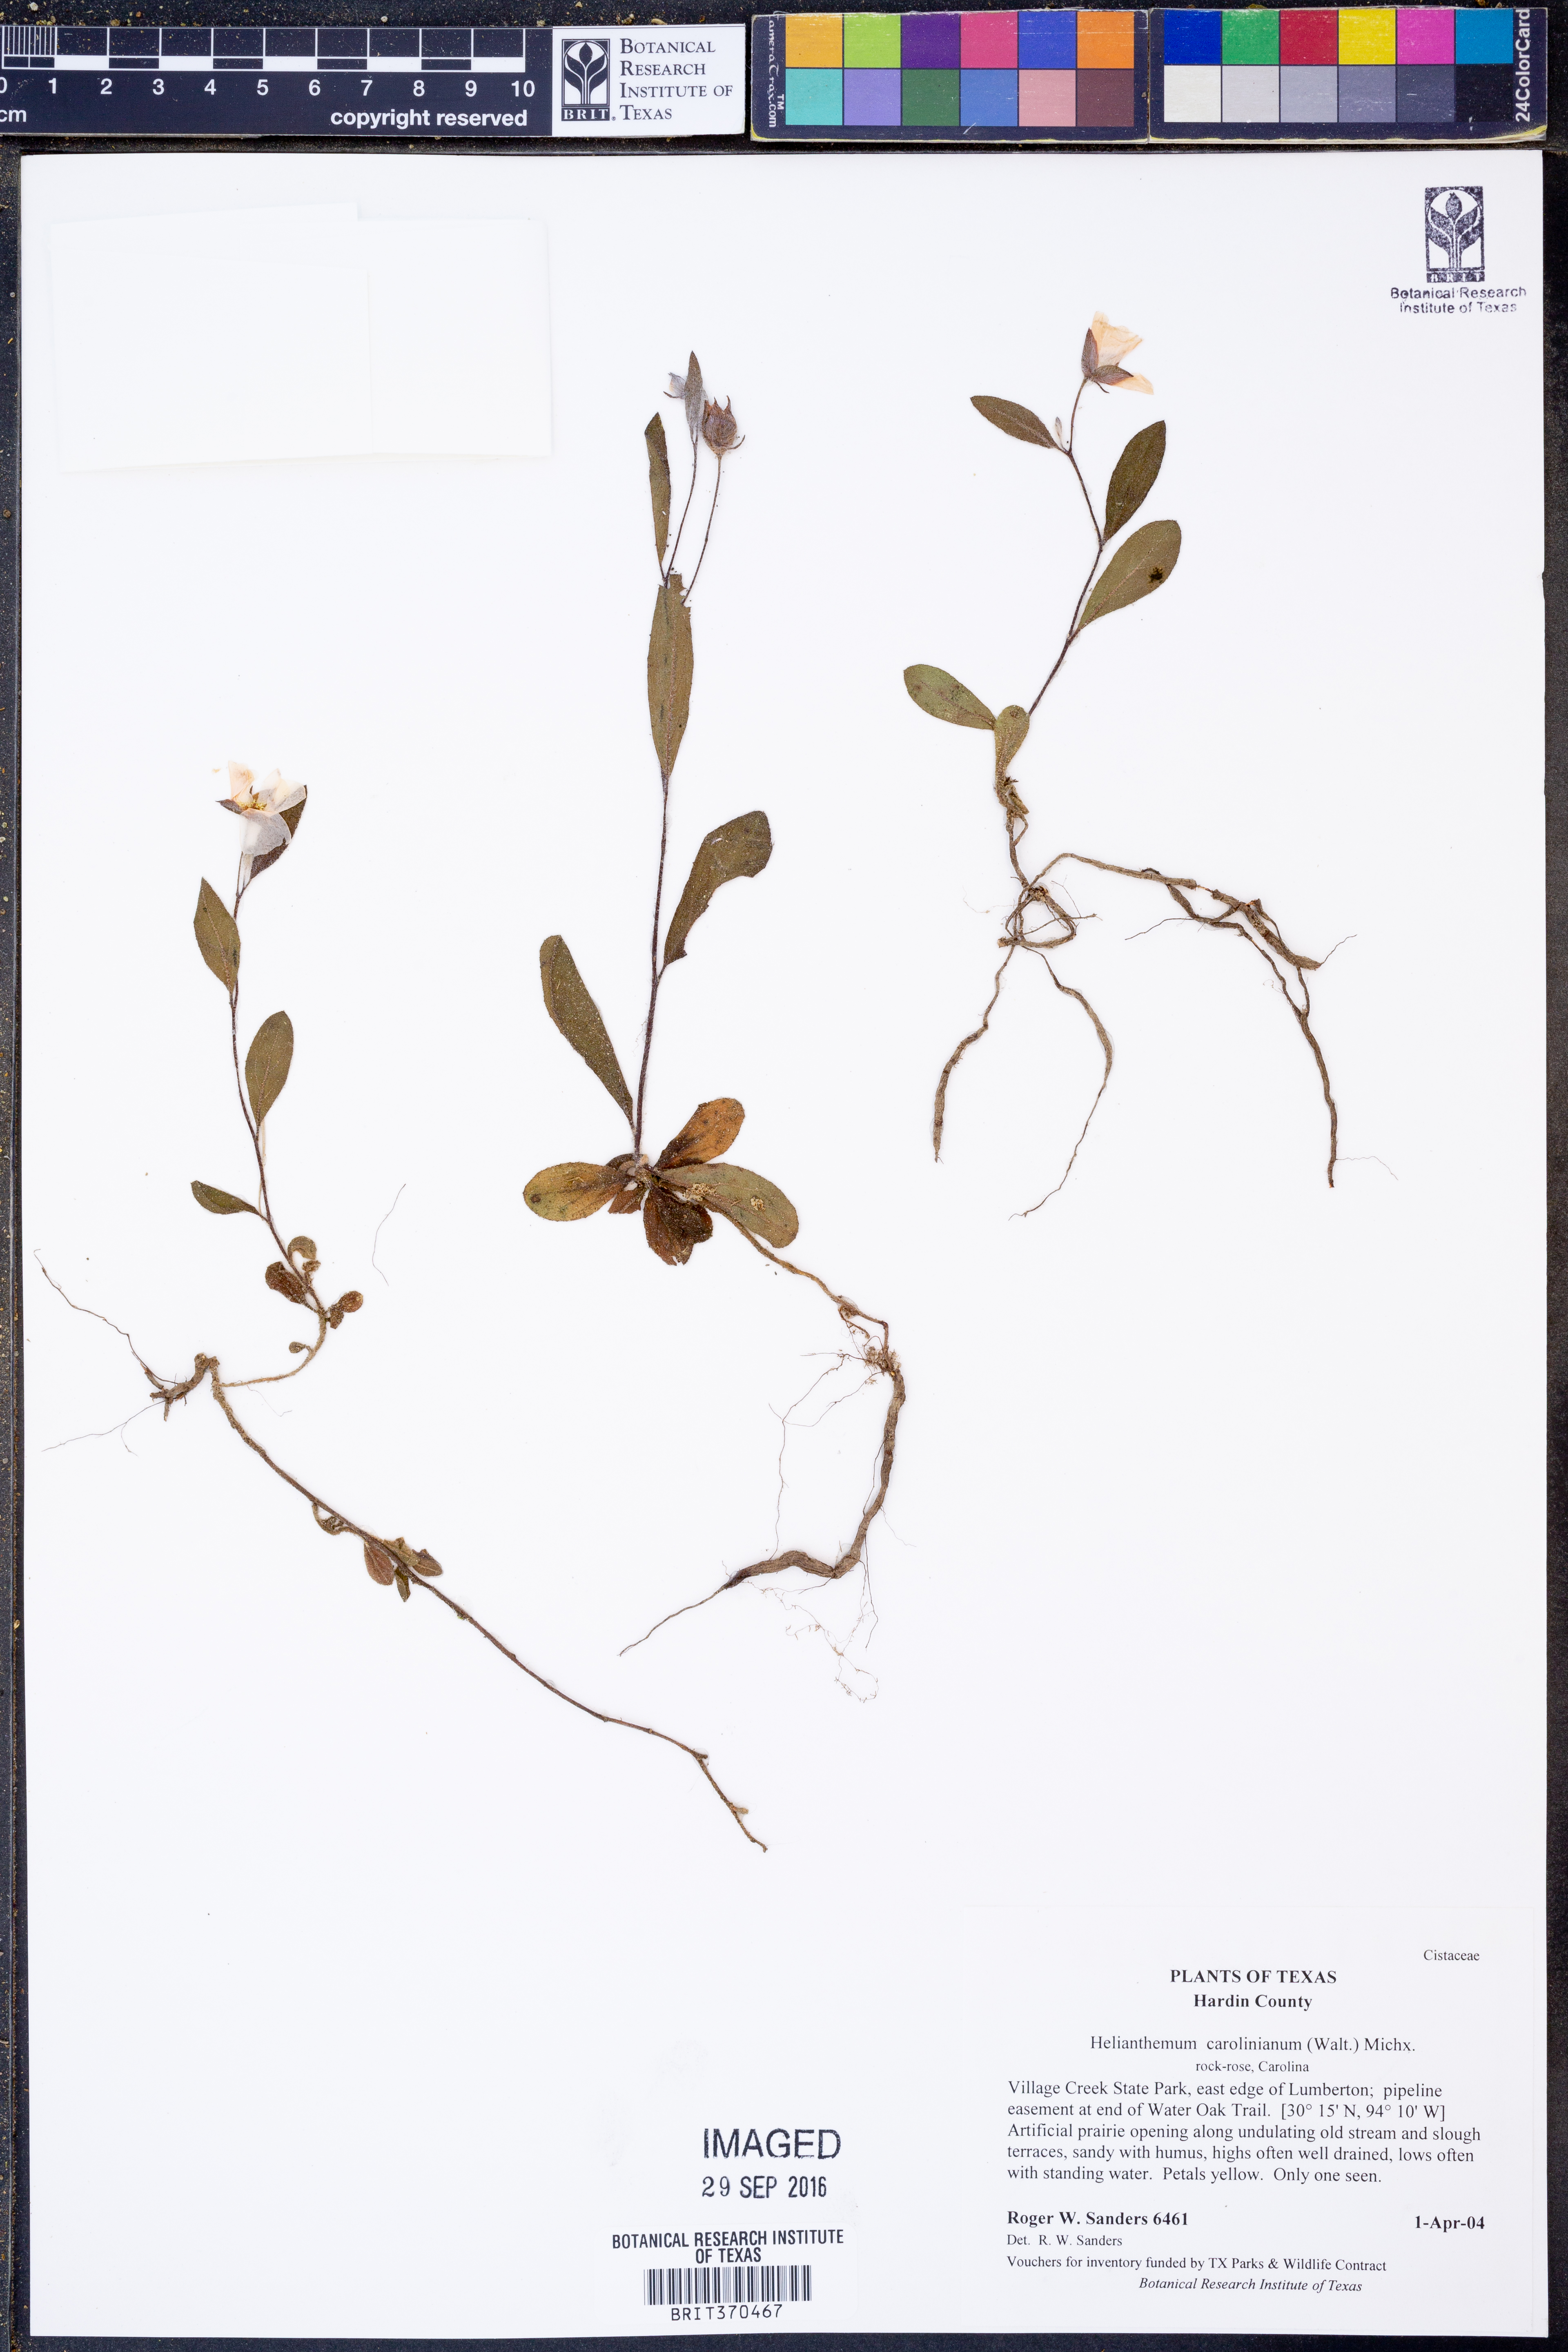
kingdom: Plantae
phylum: Tracheophyta
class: Magnoliopsida
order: Malvales
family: Cistaceae
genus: Crocanthemum
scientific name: Crocanthemum carolinianum
